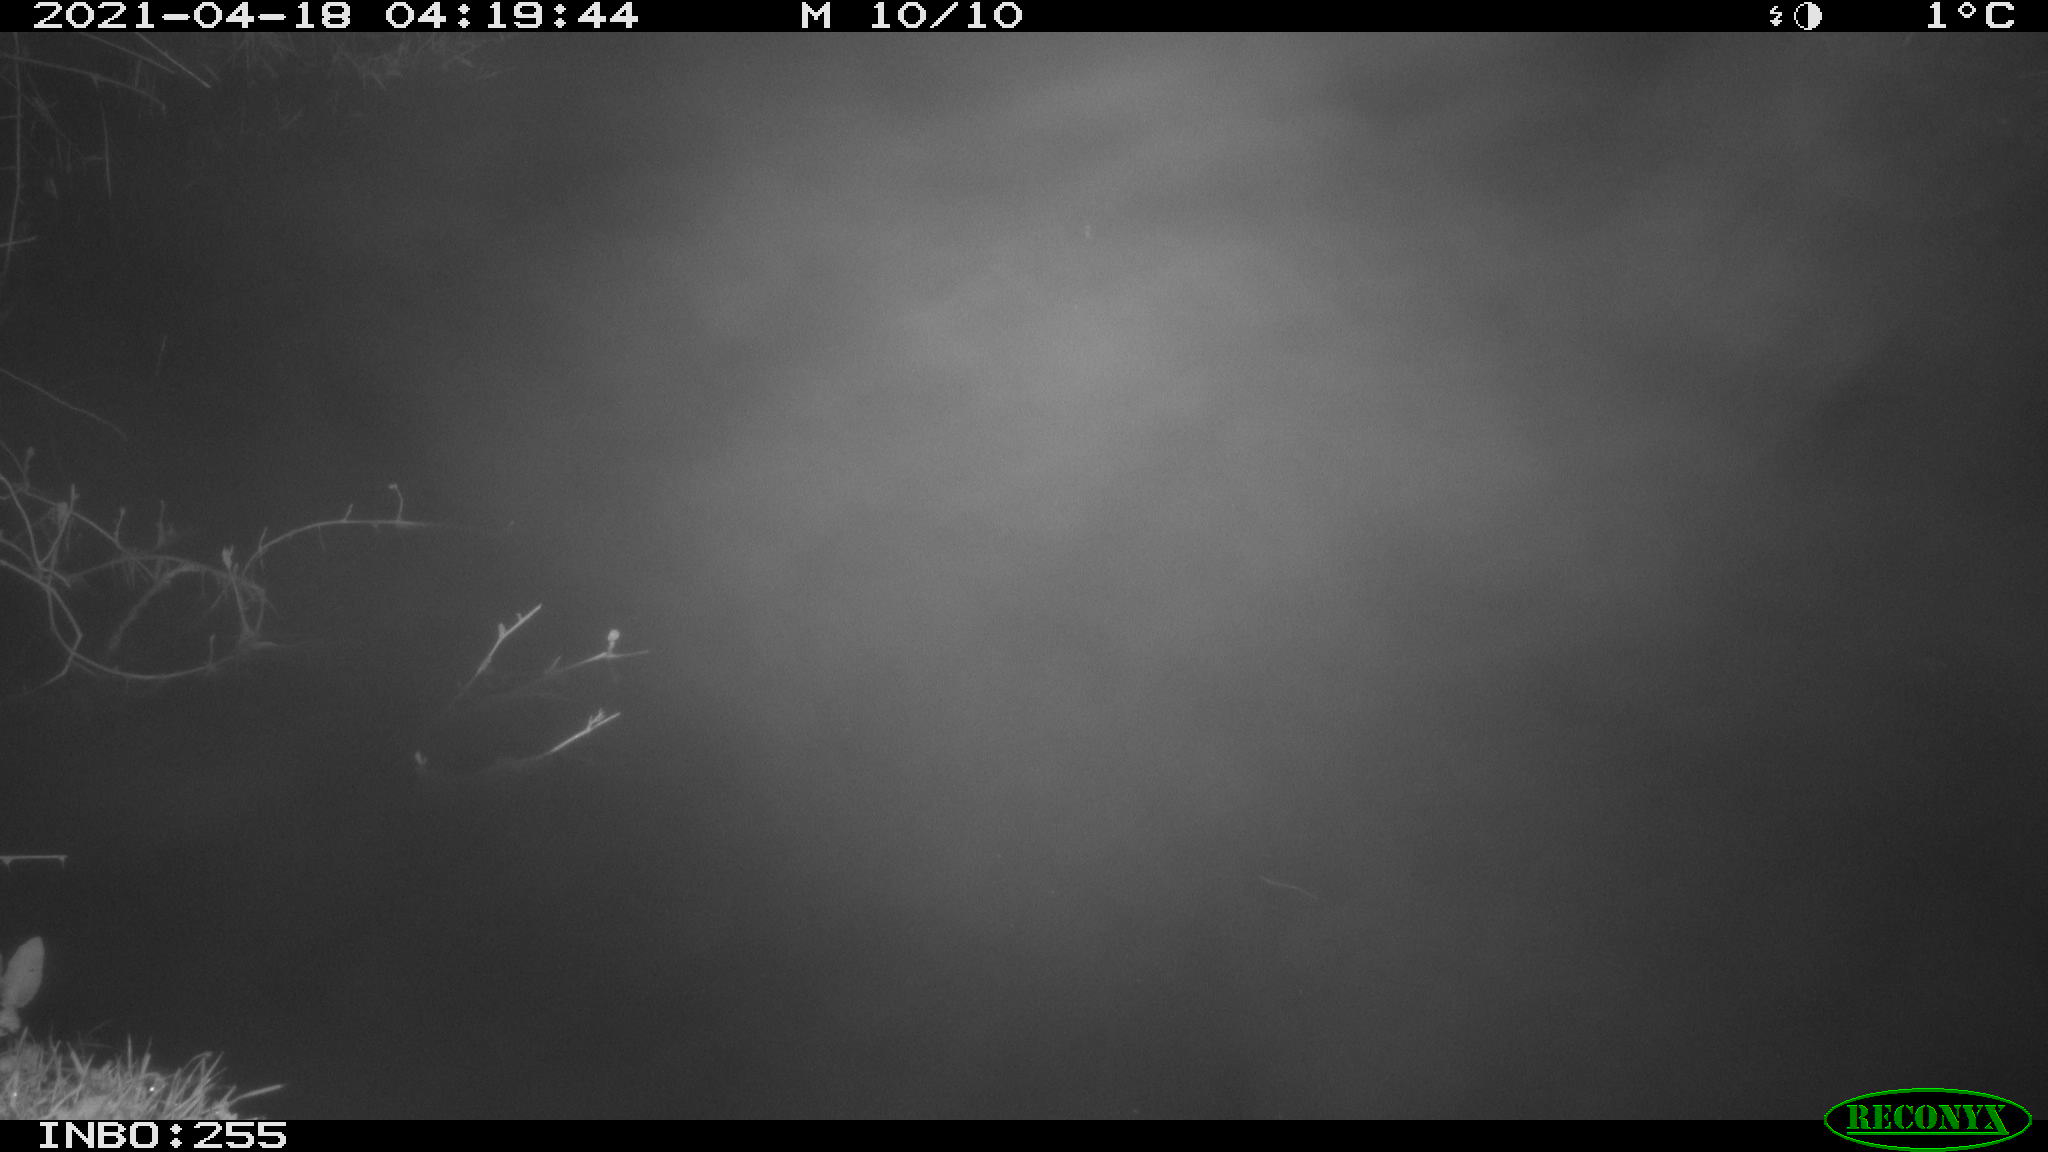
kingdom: Animalia
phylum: Chordata
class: Aves
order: Anseriformes
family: Anatidae
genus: Anas
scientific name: Anas platyrhynchos
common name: Mallard
